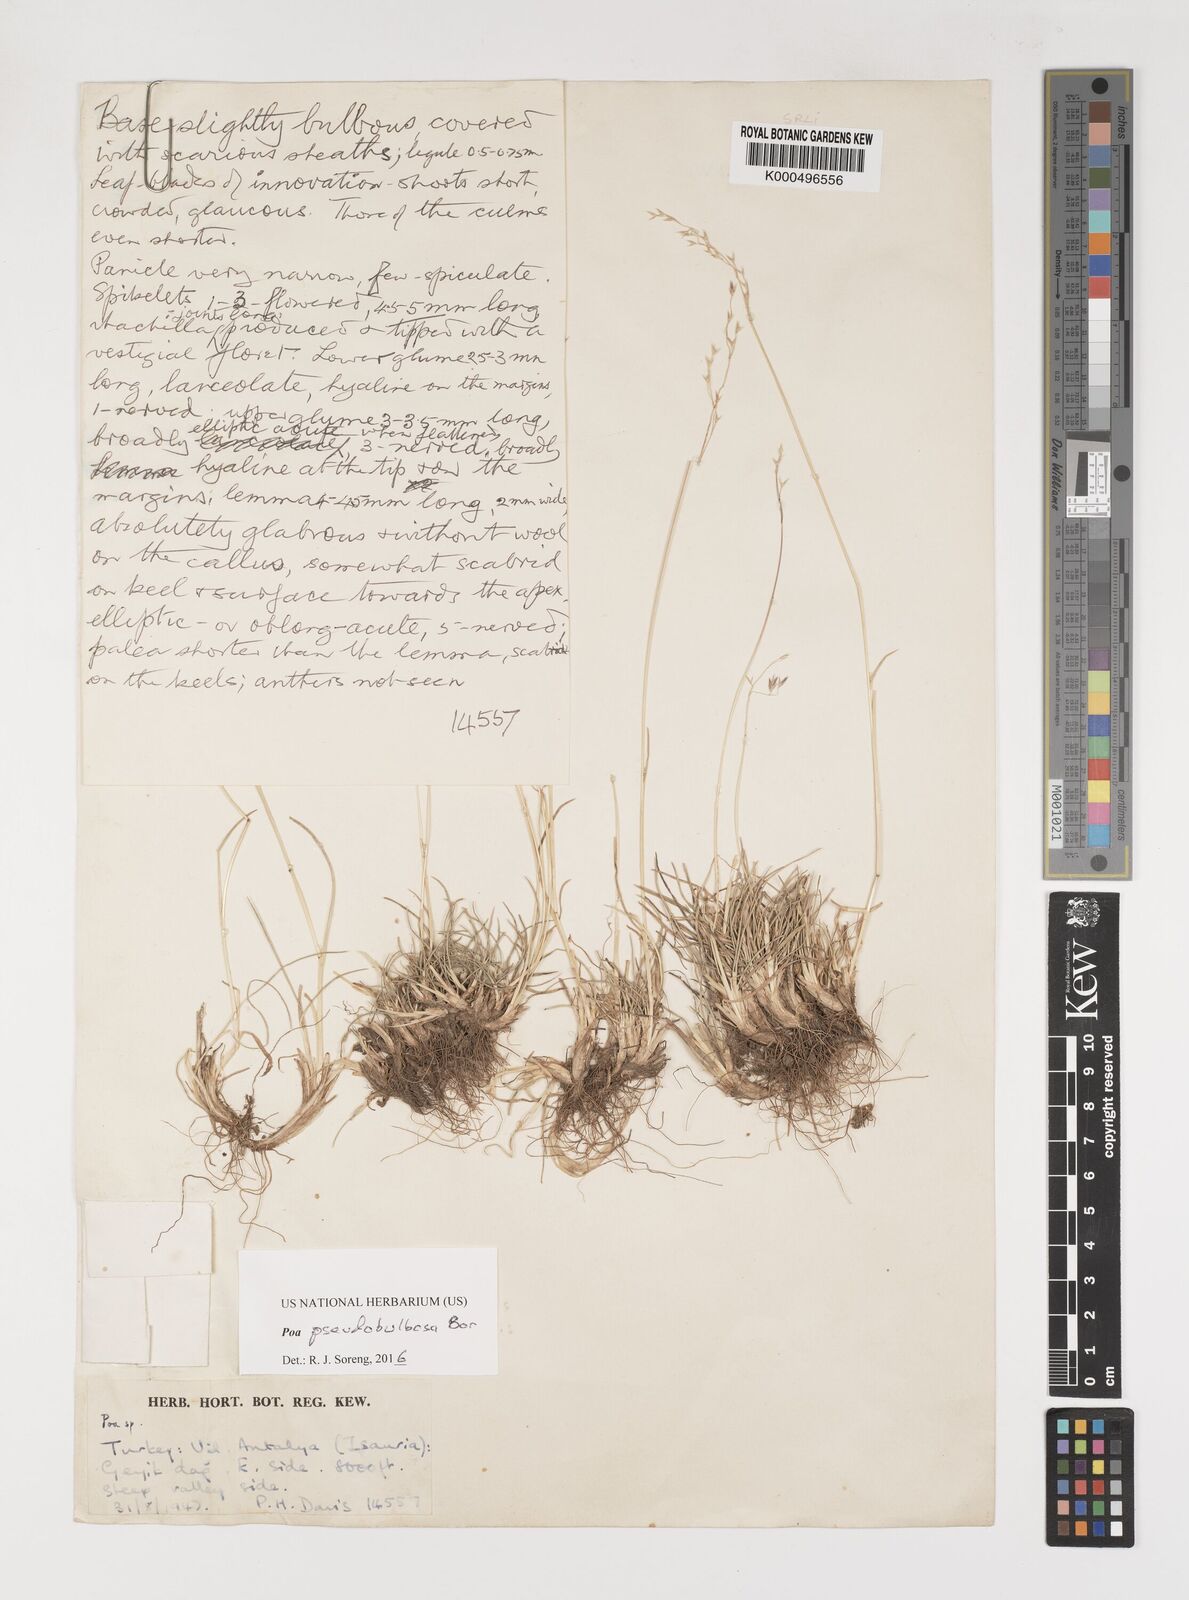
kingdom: Plantae
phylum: Tracheophyta
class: Liliopsida
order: Poales
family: Poaceae
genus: Poa
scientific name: Poa pseudobulbosa
